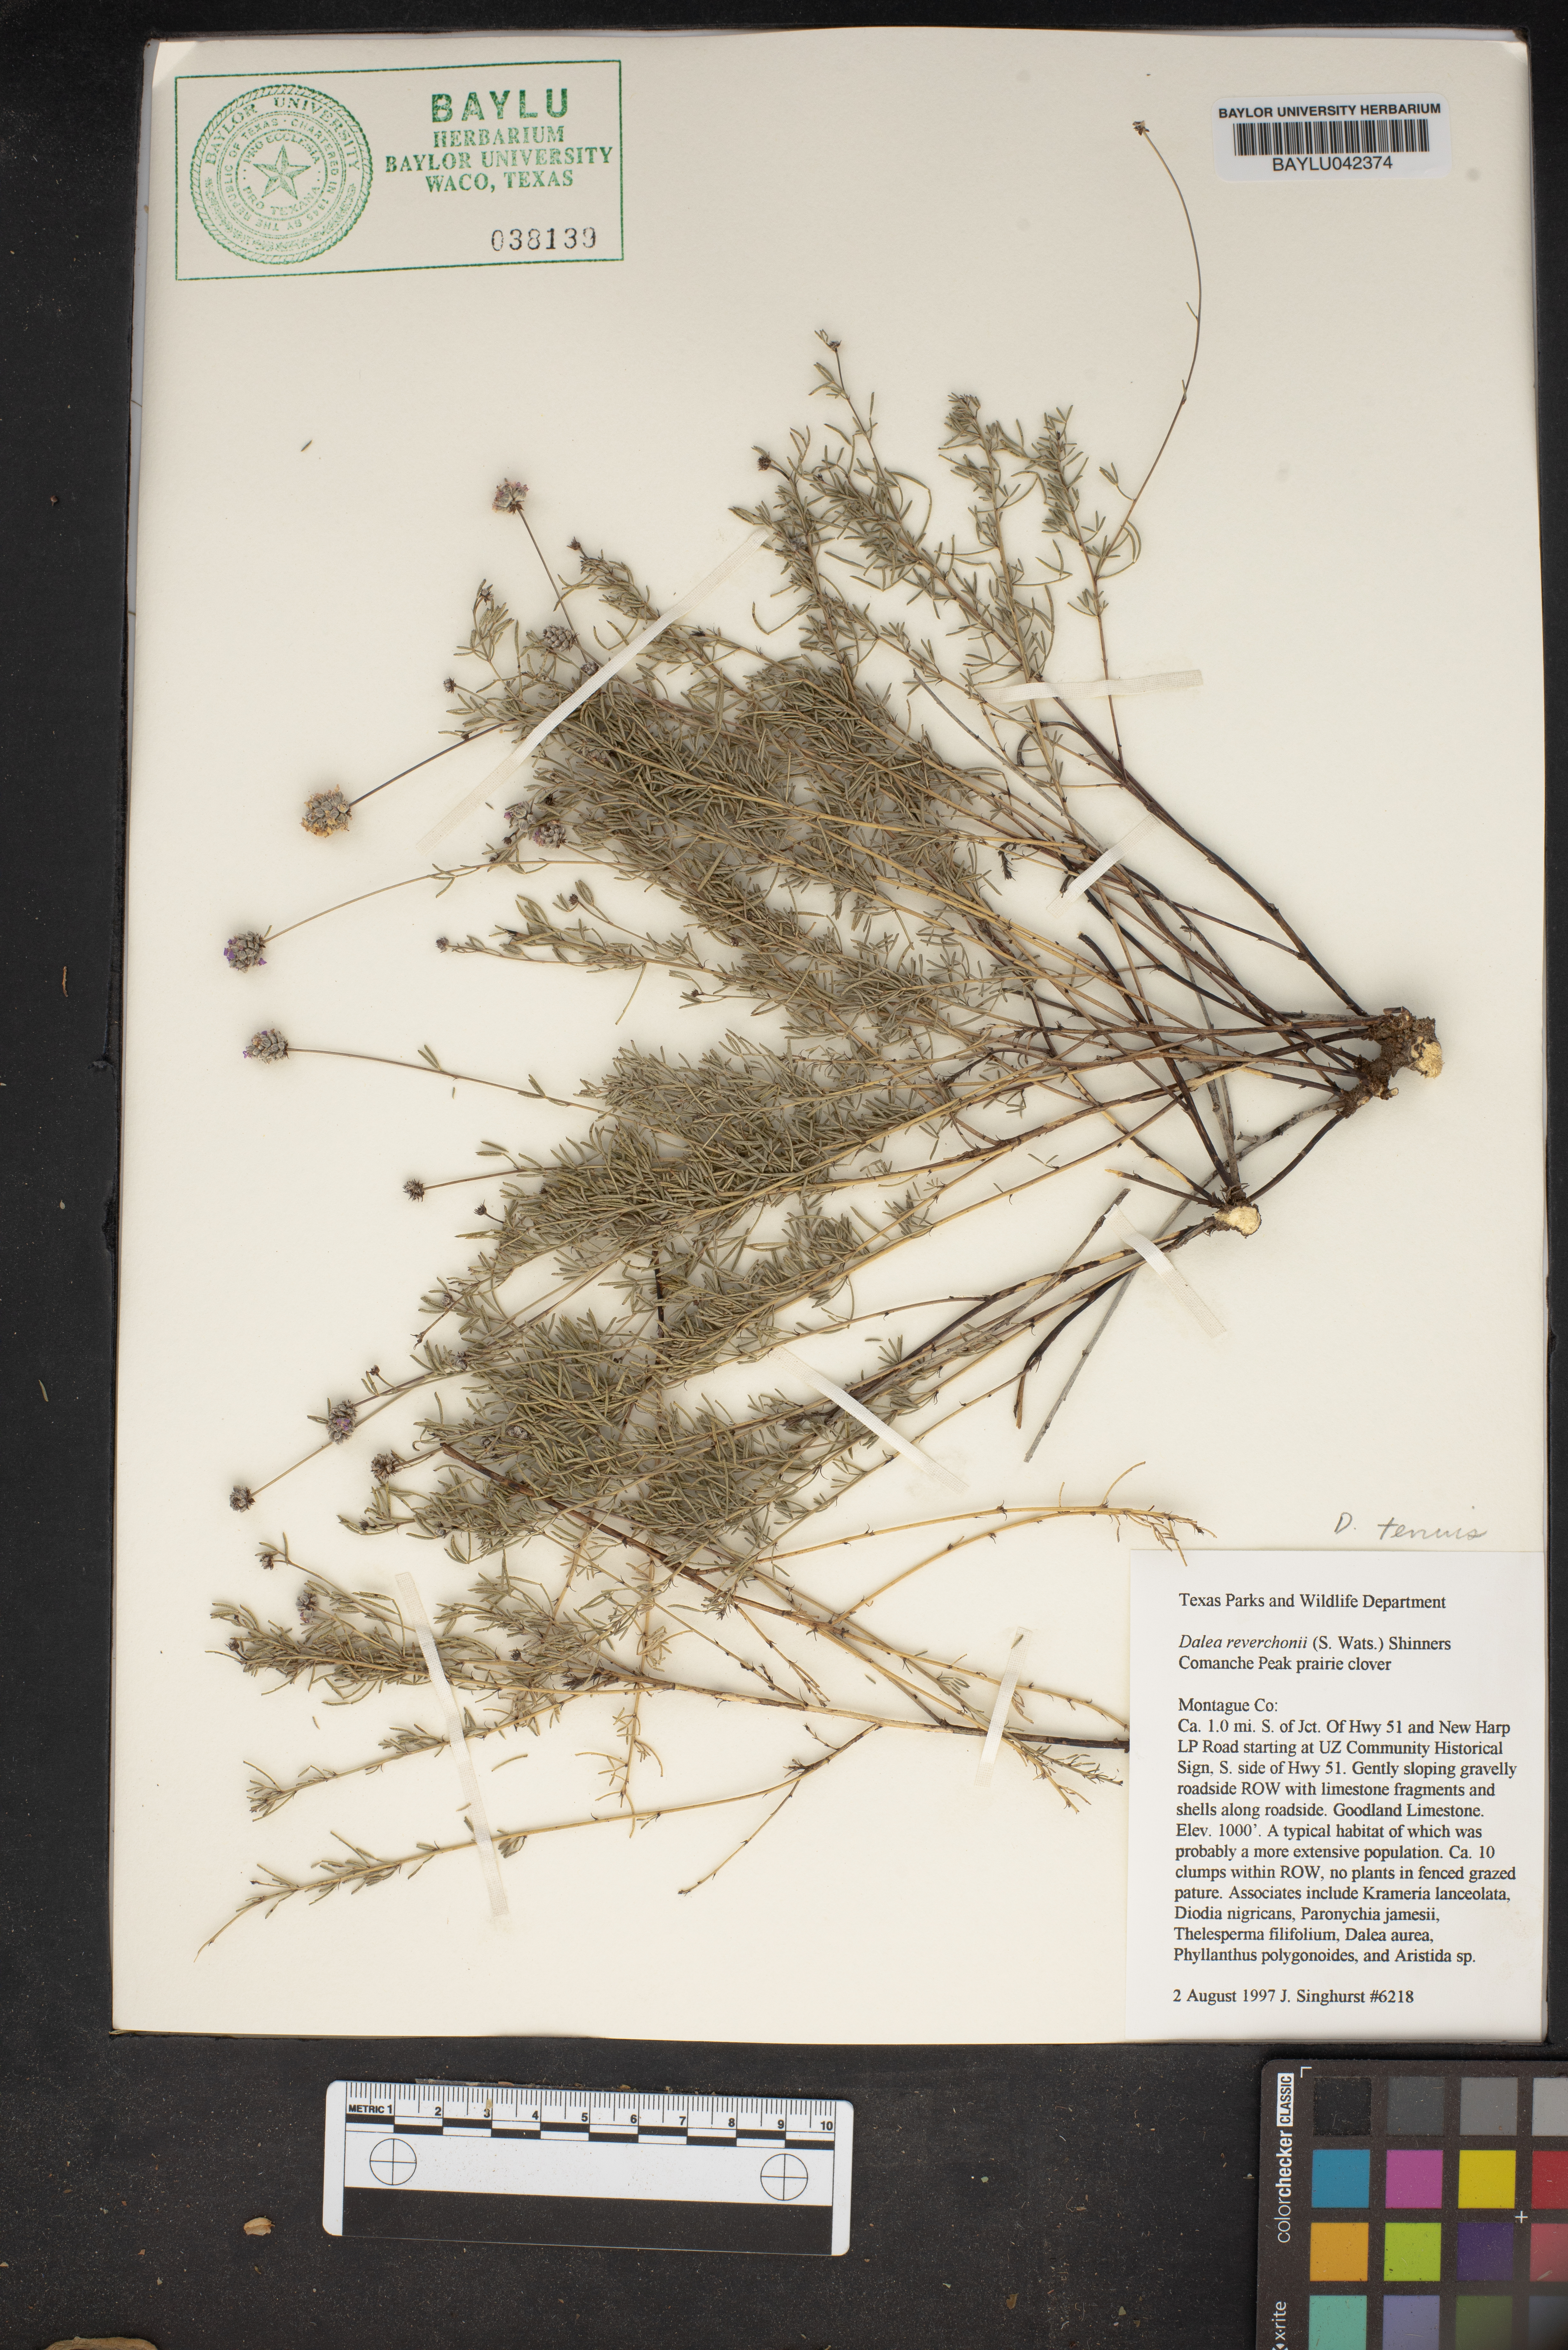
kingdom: Plantae
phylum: Tracheophyta
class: Magnoliopsida
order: Fabales
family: Fabaceae
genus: Dalea
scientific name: Dalea reverchonii
